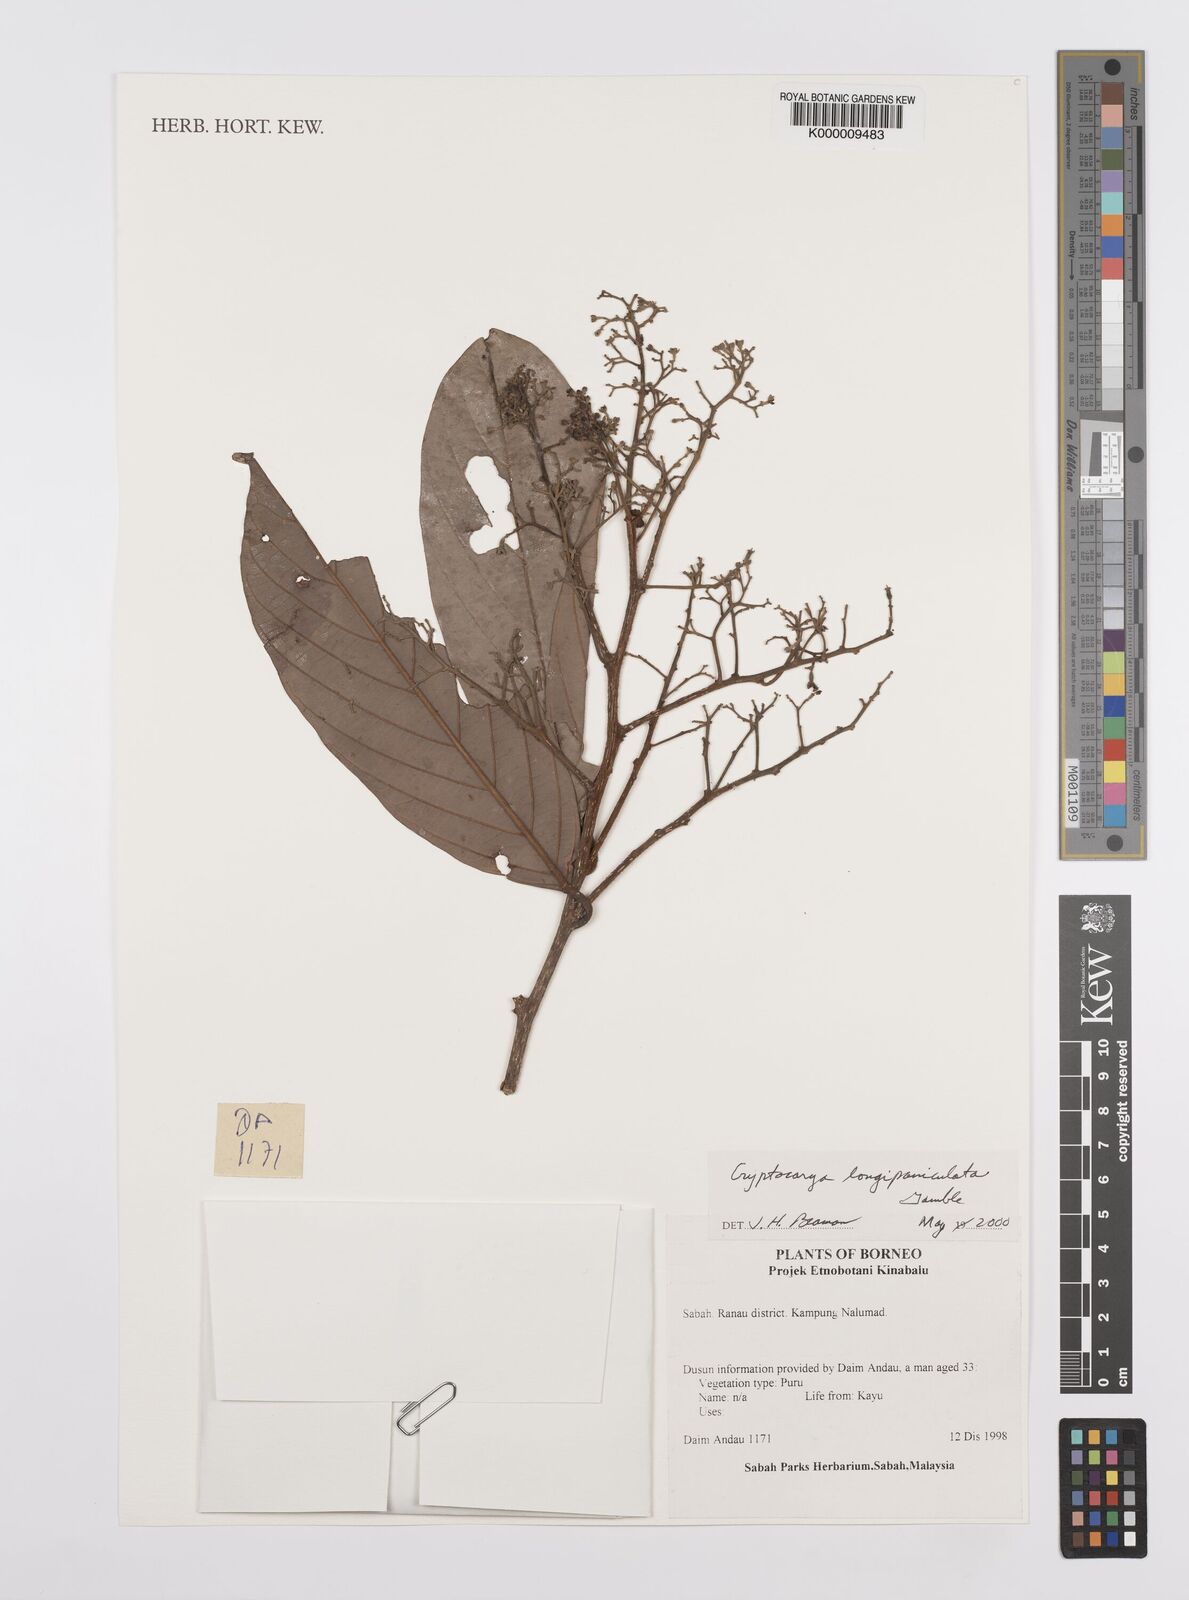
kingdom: Plantae
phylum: Tracheophyta
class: Magnoliopsida
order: Laurales
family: Lauraceae
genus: Cryptocarya
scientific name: Cryptocarya
